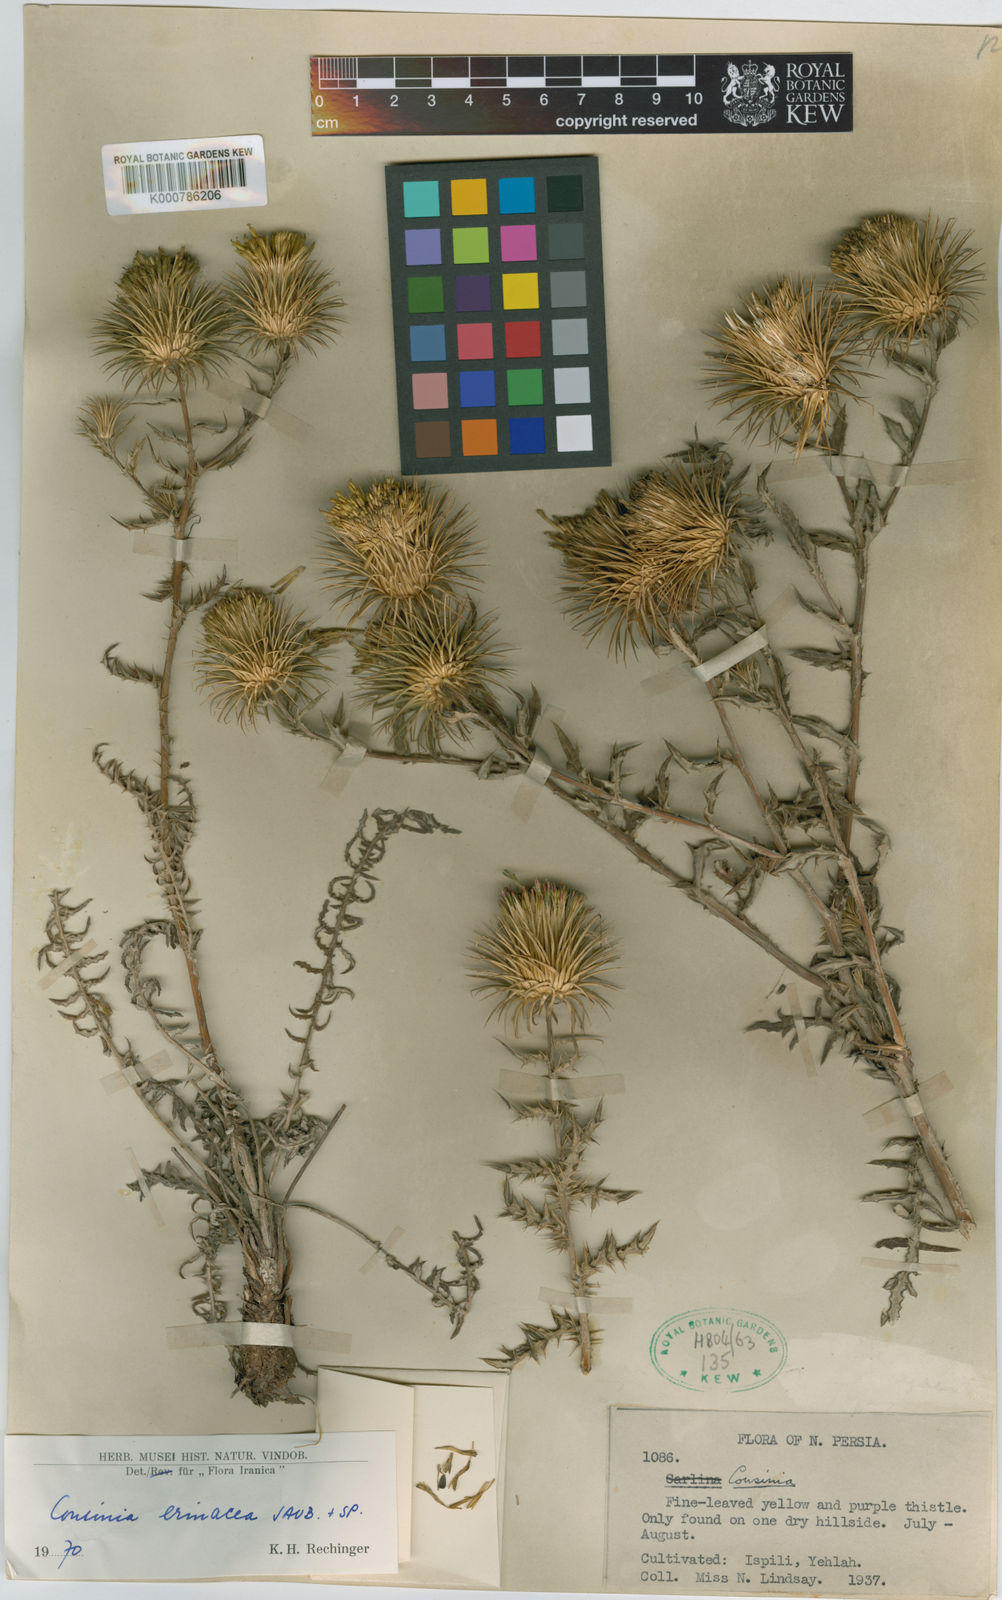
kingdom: Plantae
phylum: Tracheophyta
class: Magnoliopsida
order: Asterales
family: Asteraceae
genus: Cousinia
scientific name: Cousinia erinacea
